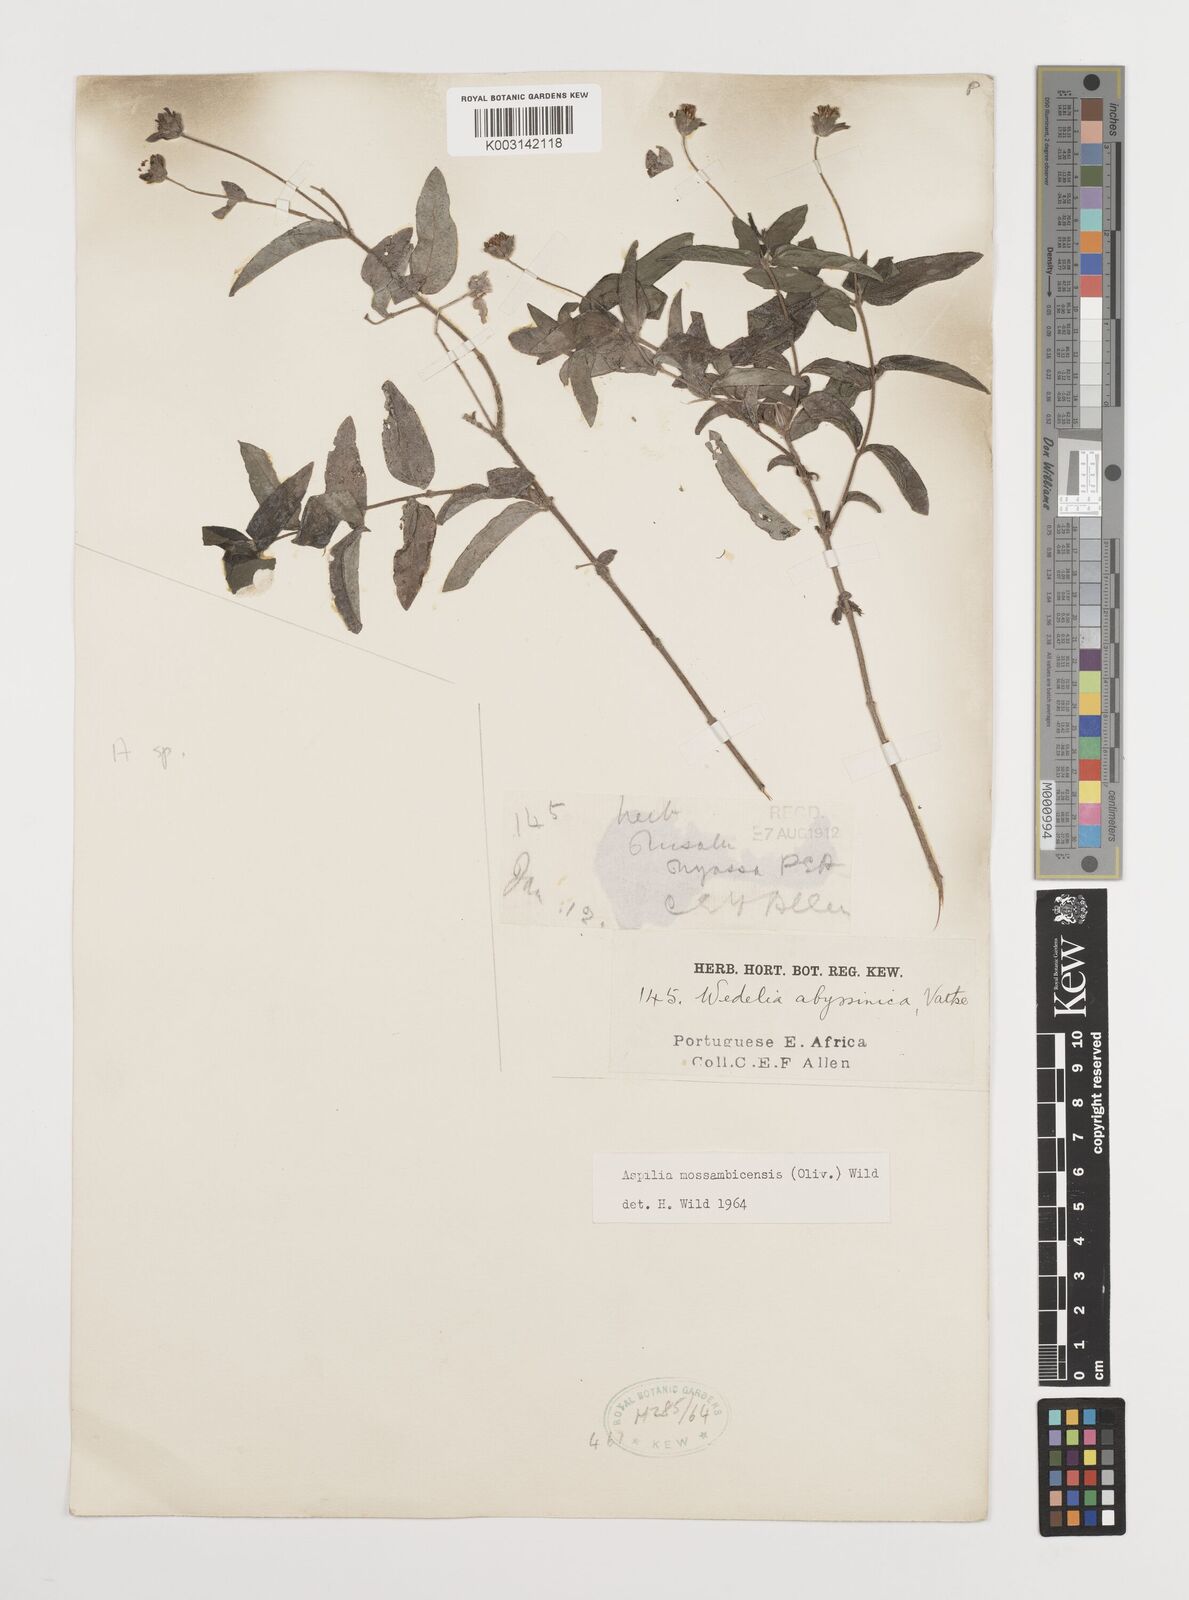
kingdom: Plantae
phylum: Tracheophyta
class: Magnoliopsida
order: Asterales
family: Asteraceae
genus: Aspilia
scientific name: Aspilia mossambicensis
